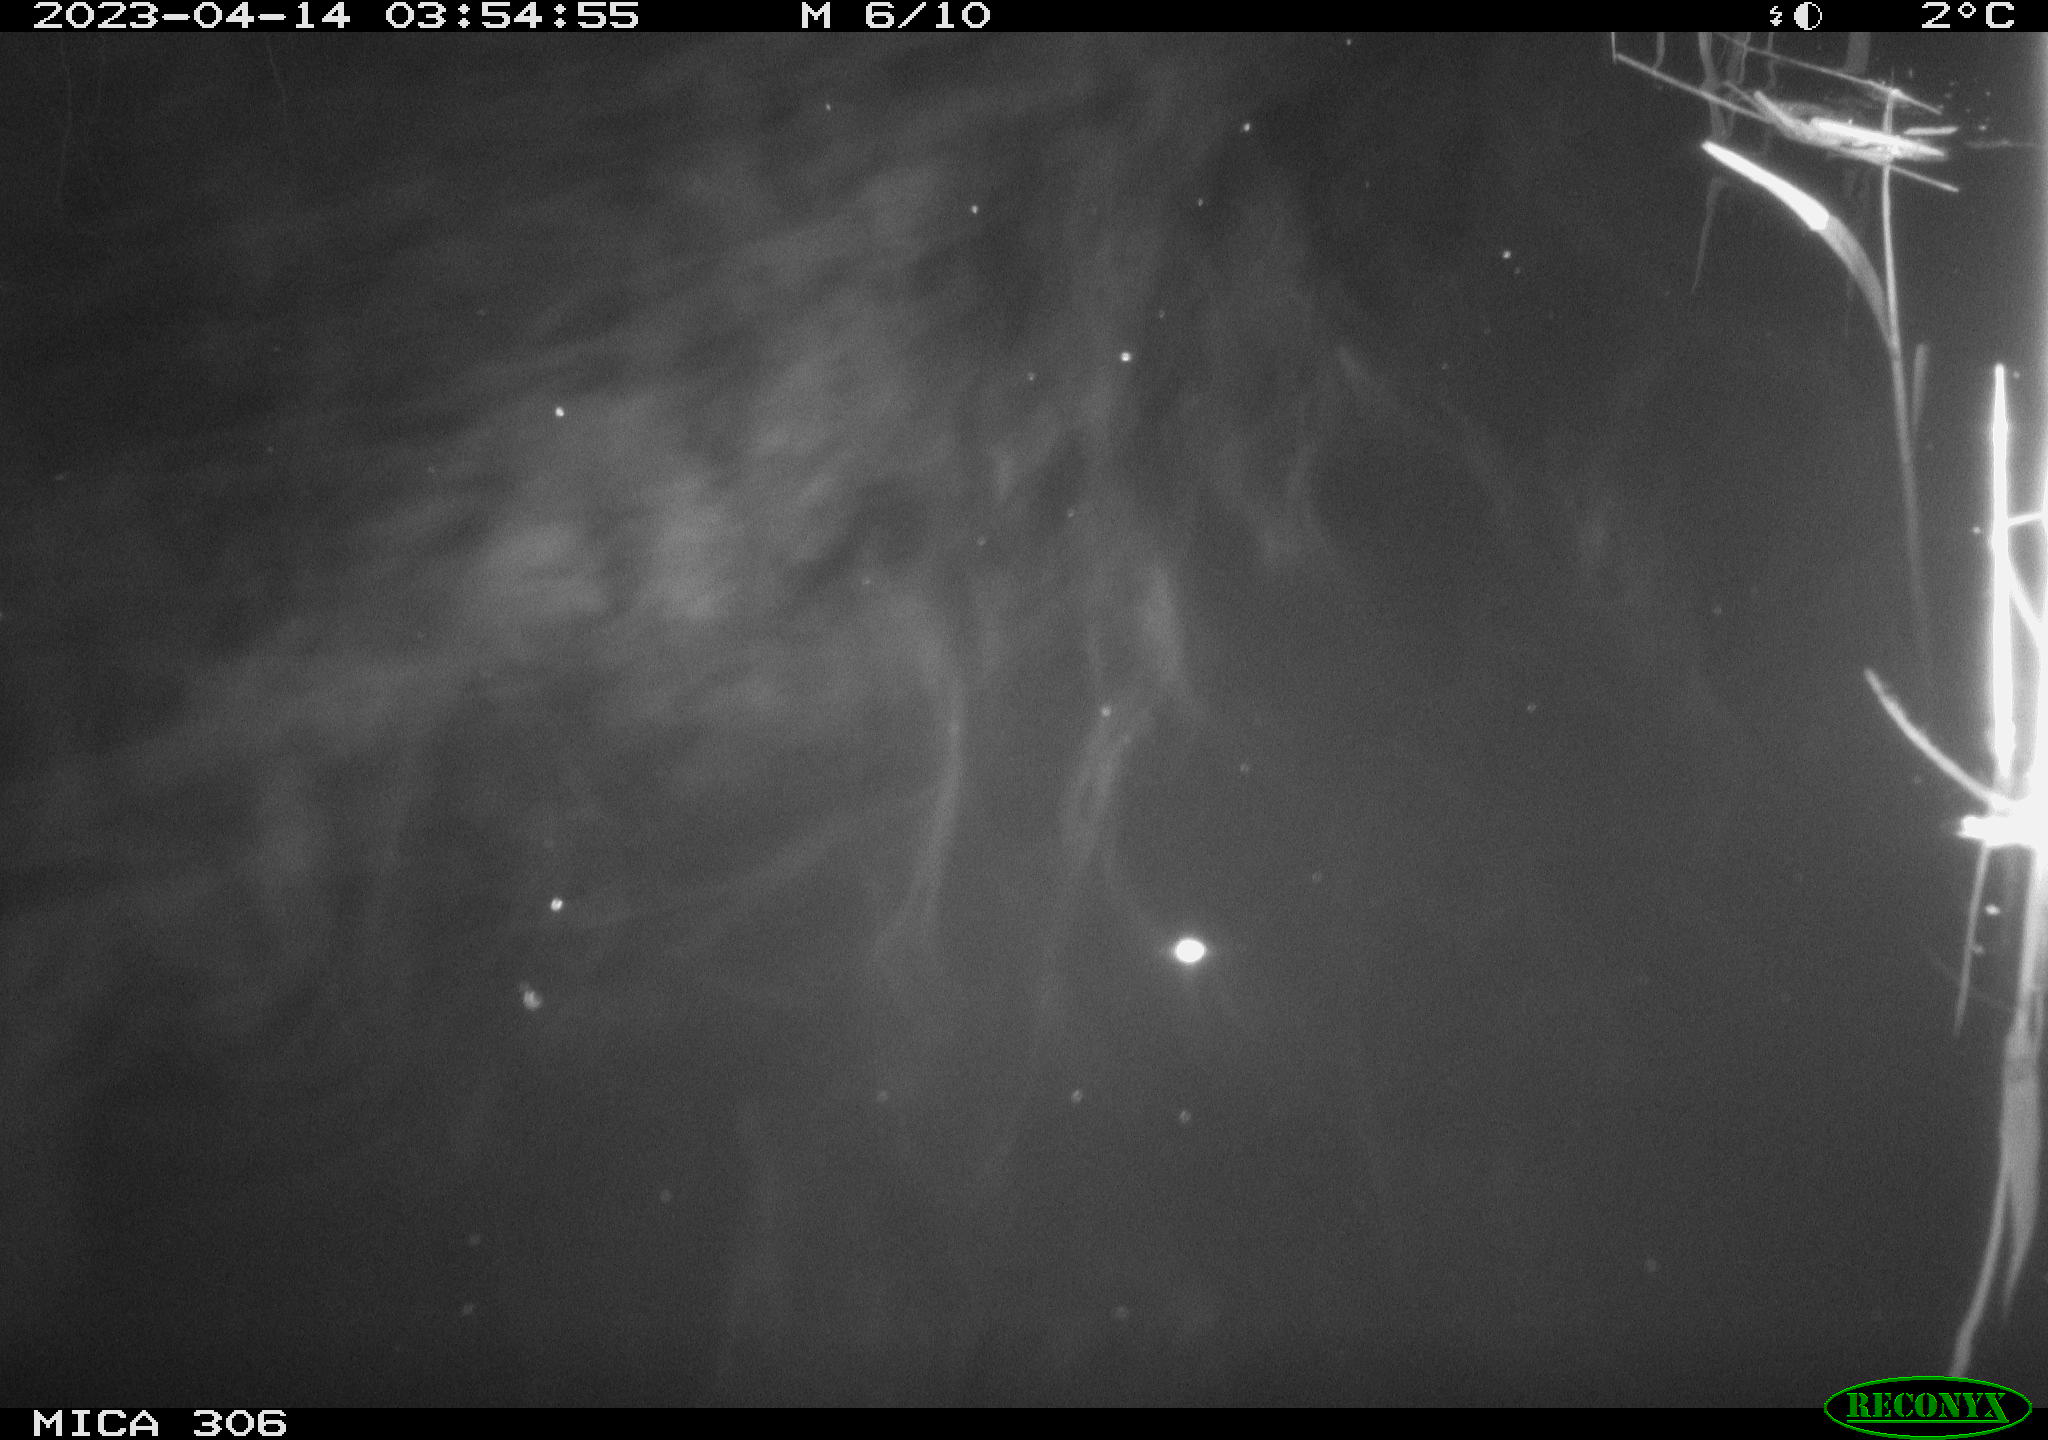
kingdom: Animalia
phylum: Chordata
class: Aves
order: Anseriformes
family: Anatidae
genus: Anas
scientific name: Anas platyrhynchos
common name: Mallard
